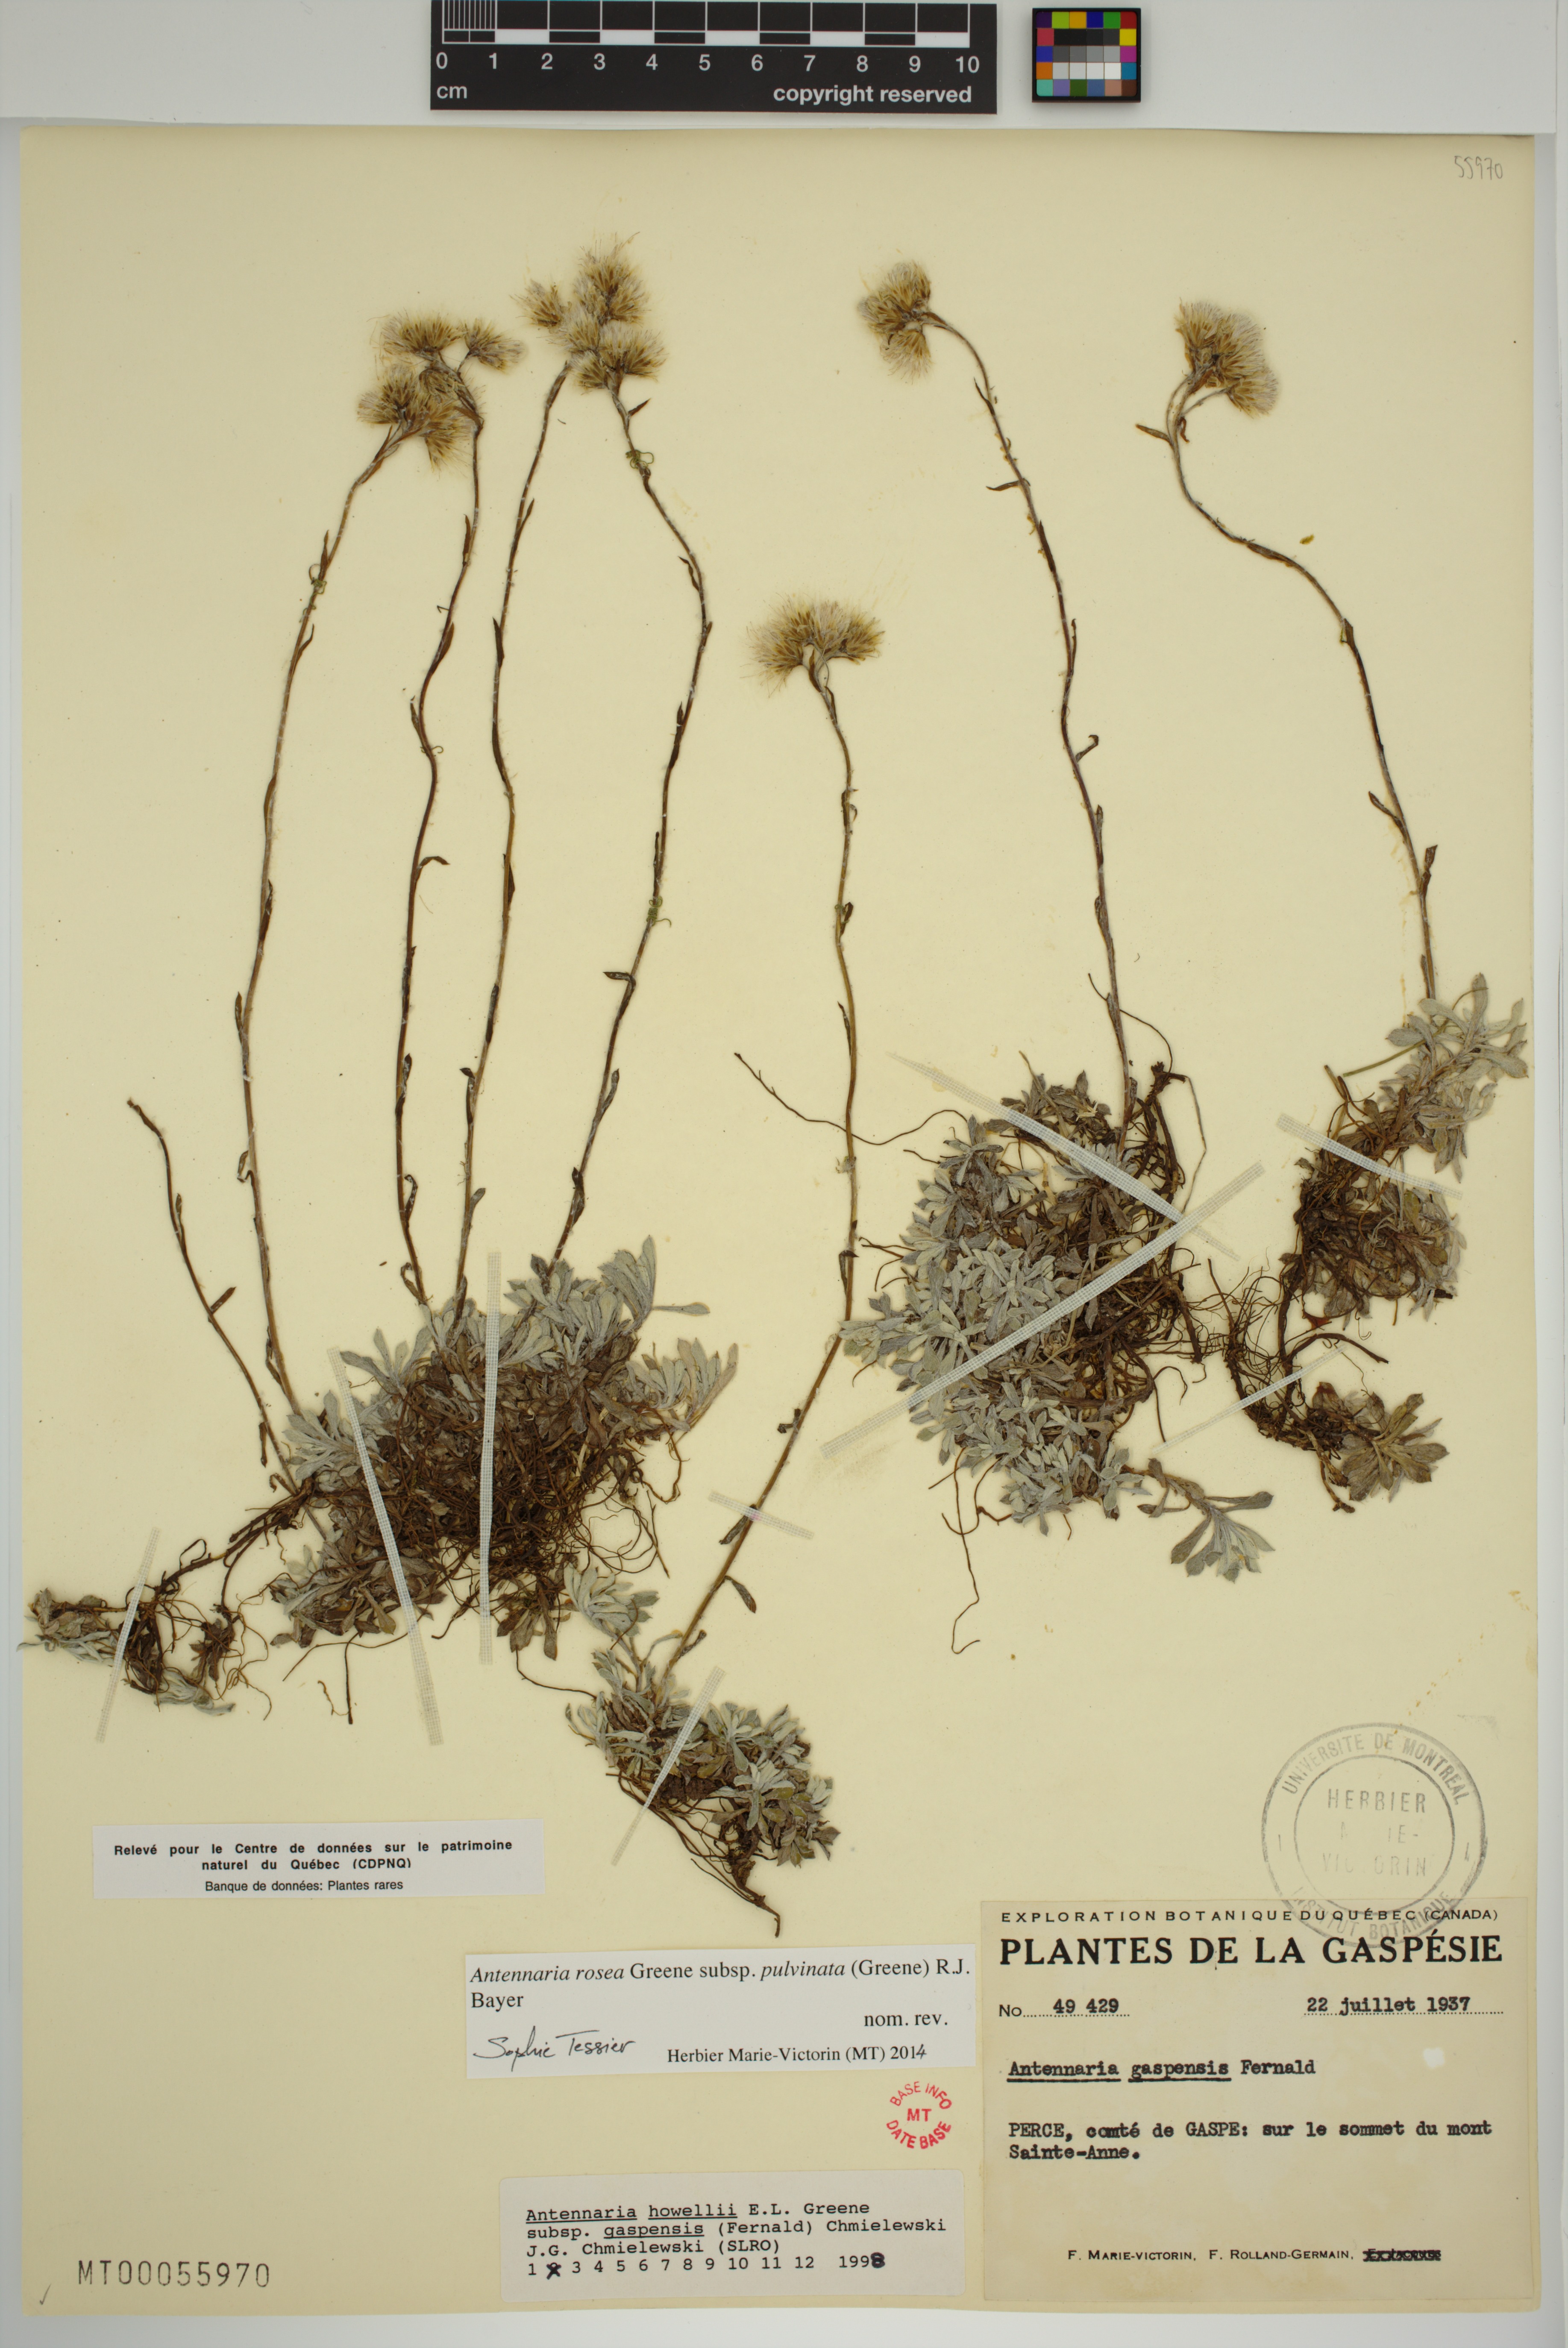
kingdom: Plantae
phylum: Tracheophyta
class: Magnoliopsida
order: Asterales
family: Asteraceae
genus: Antennaria
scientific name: Antennaria rosea
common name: Rosy pussytoes
